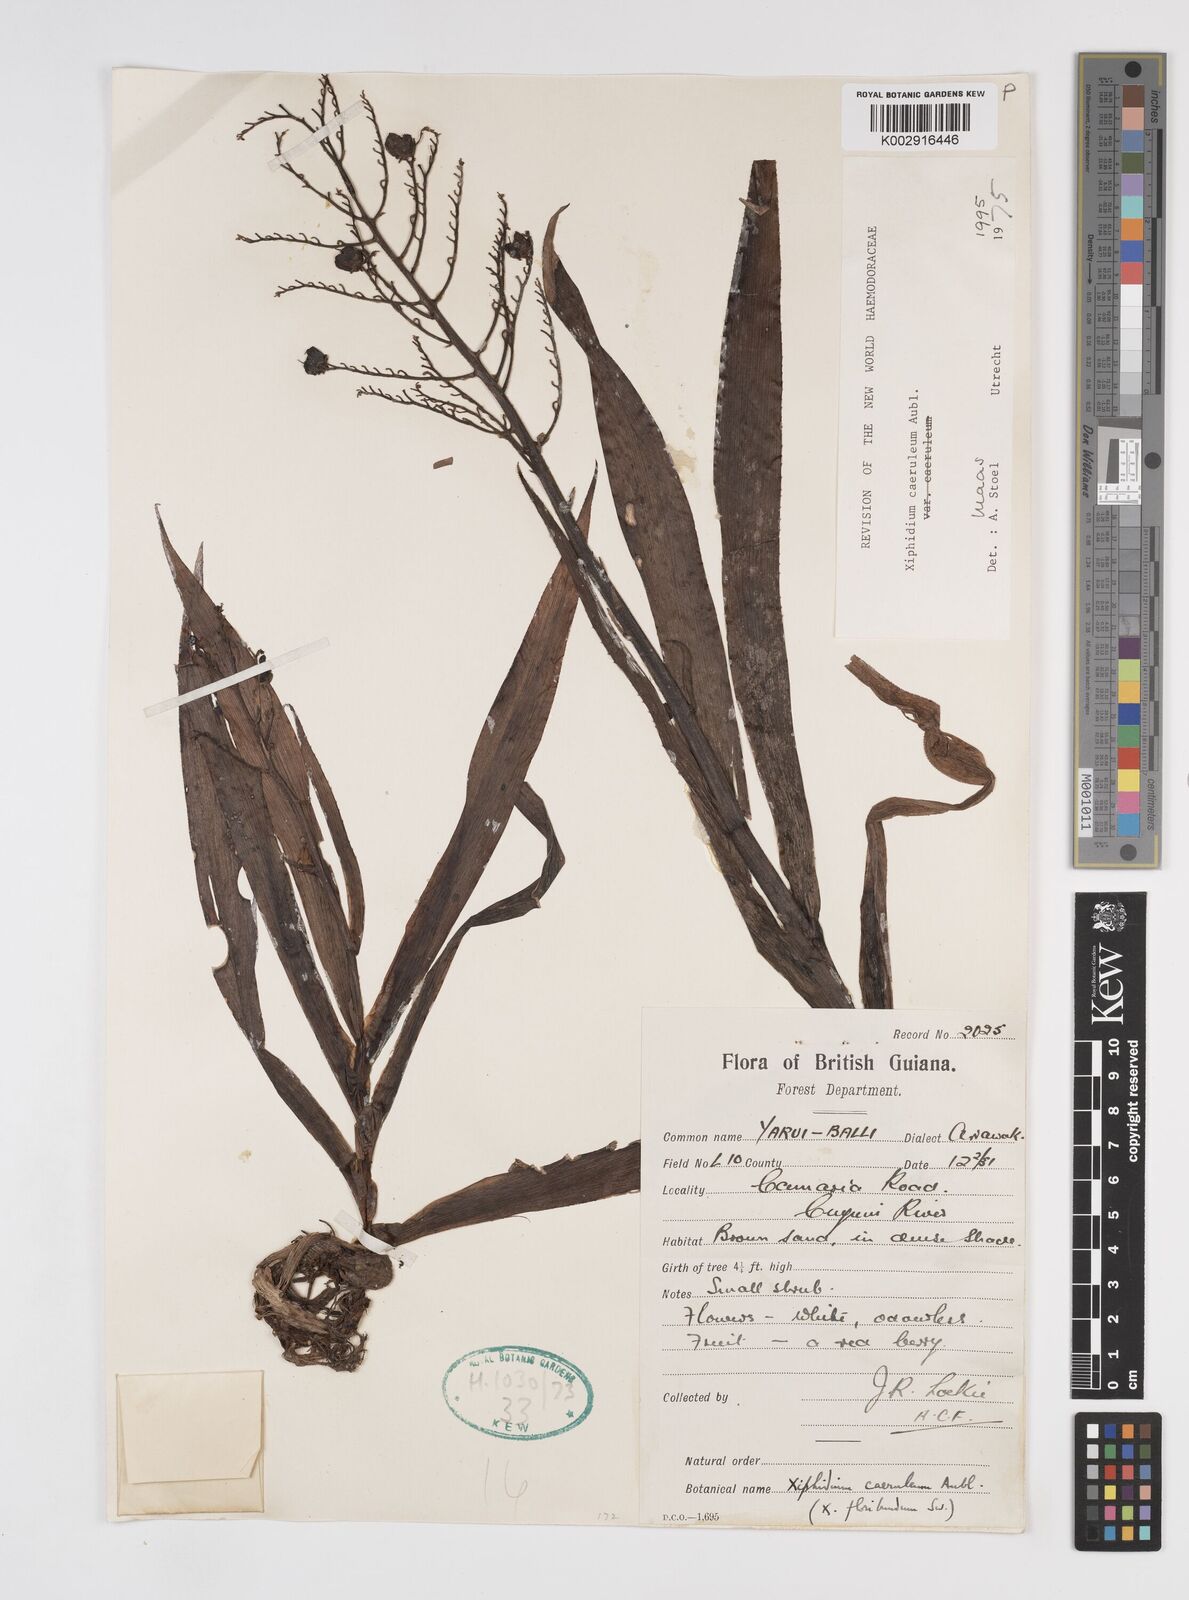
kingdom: Plantae
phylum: Tracheophyta
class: Liliopsida
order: Commelinales
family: Haemodoraceae
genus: Xiphidium
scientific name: Xiphidium caeruleum
